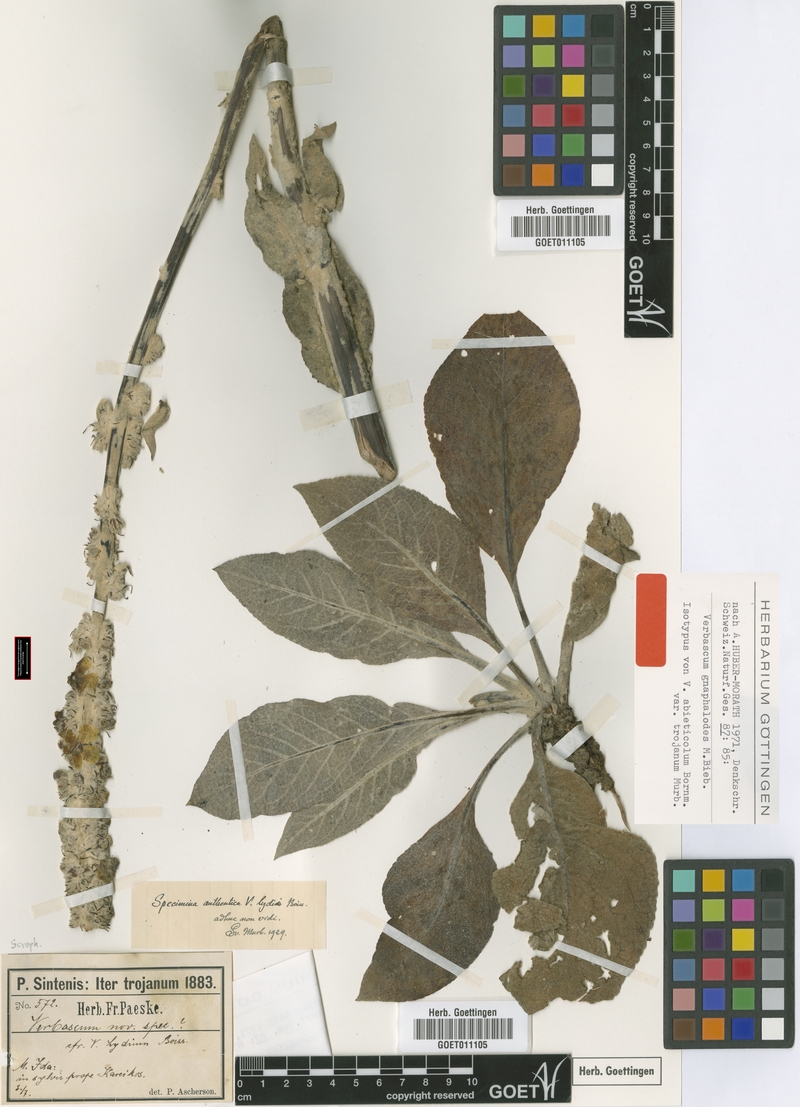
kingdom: Plantae
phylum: Tracheophyta
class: Magnoliopsida
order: Lamiales
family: Scrophulariaceae
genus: Verbascum
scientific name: Verbascum gnaphalodes
